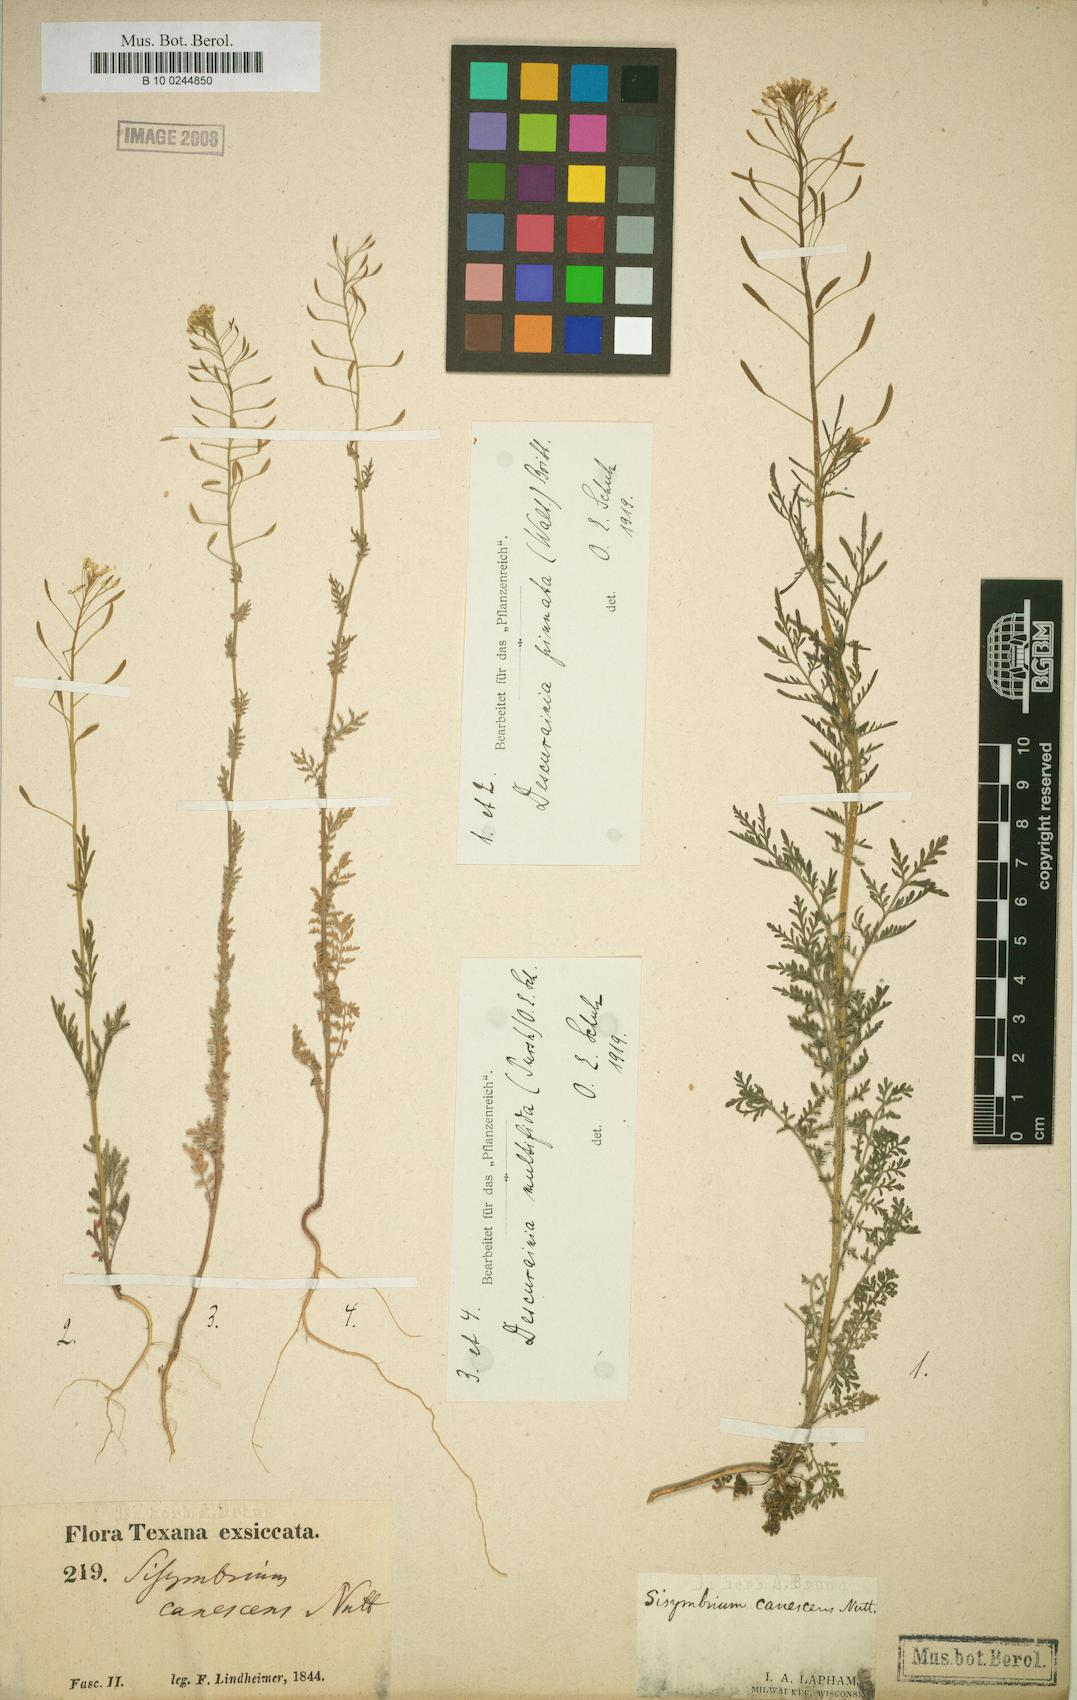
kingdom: Plantae
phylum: Tracheophyta
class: Magnoliopsida
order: Brassicales
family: Brassicaceae
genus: Descurainia
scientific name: Descurainia pinnata
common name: Western tansy mustard
